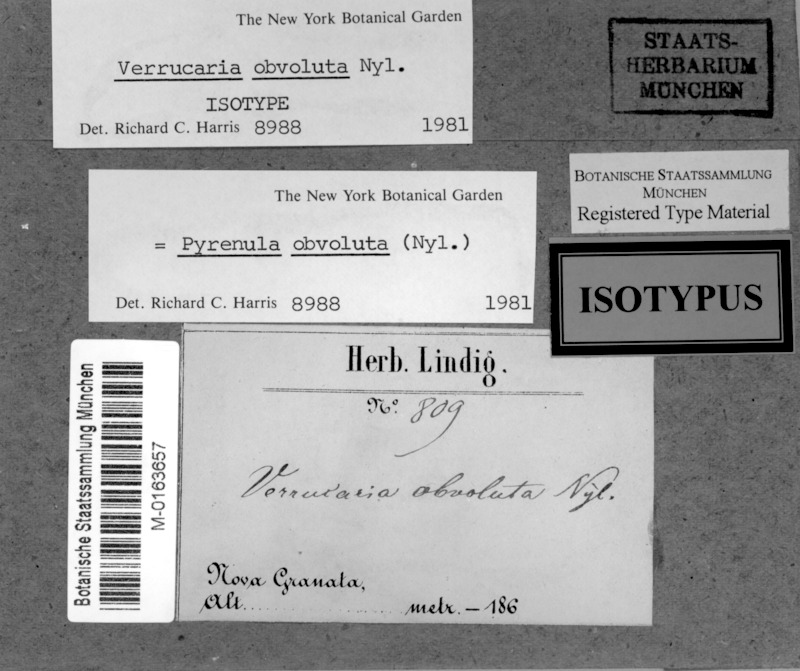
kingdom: Fungi
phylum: Ascomycota
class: Eurotiomycetes
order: Pyrenulales
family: Pyrenulaceae
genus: Pyrenula
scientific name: Pyrenula obvoluta
